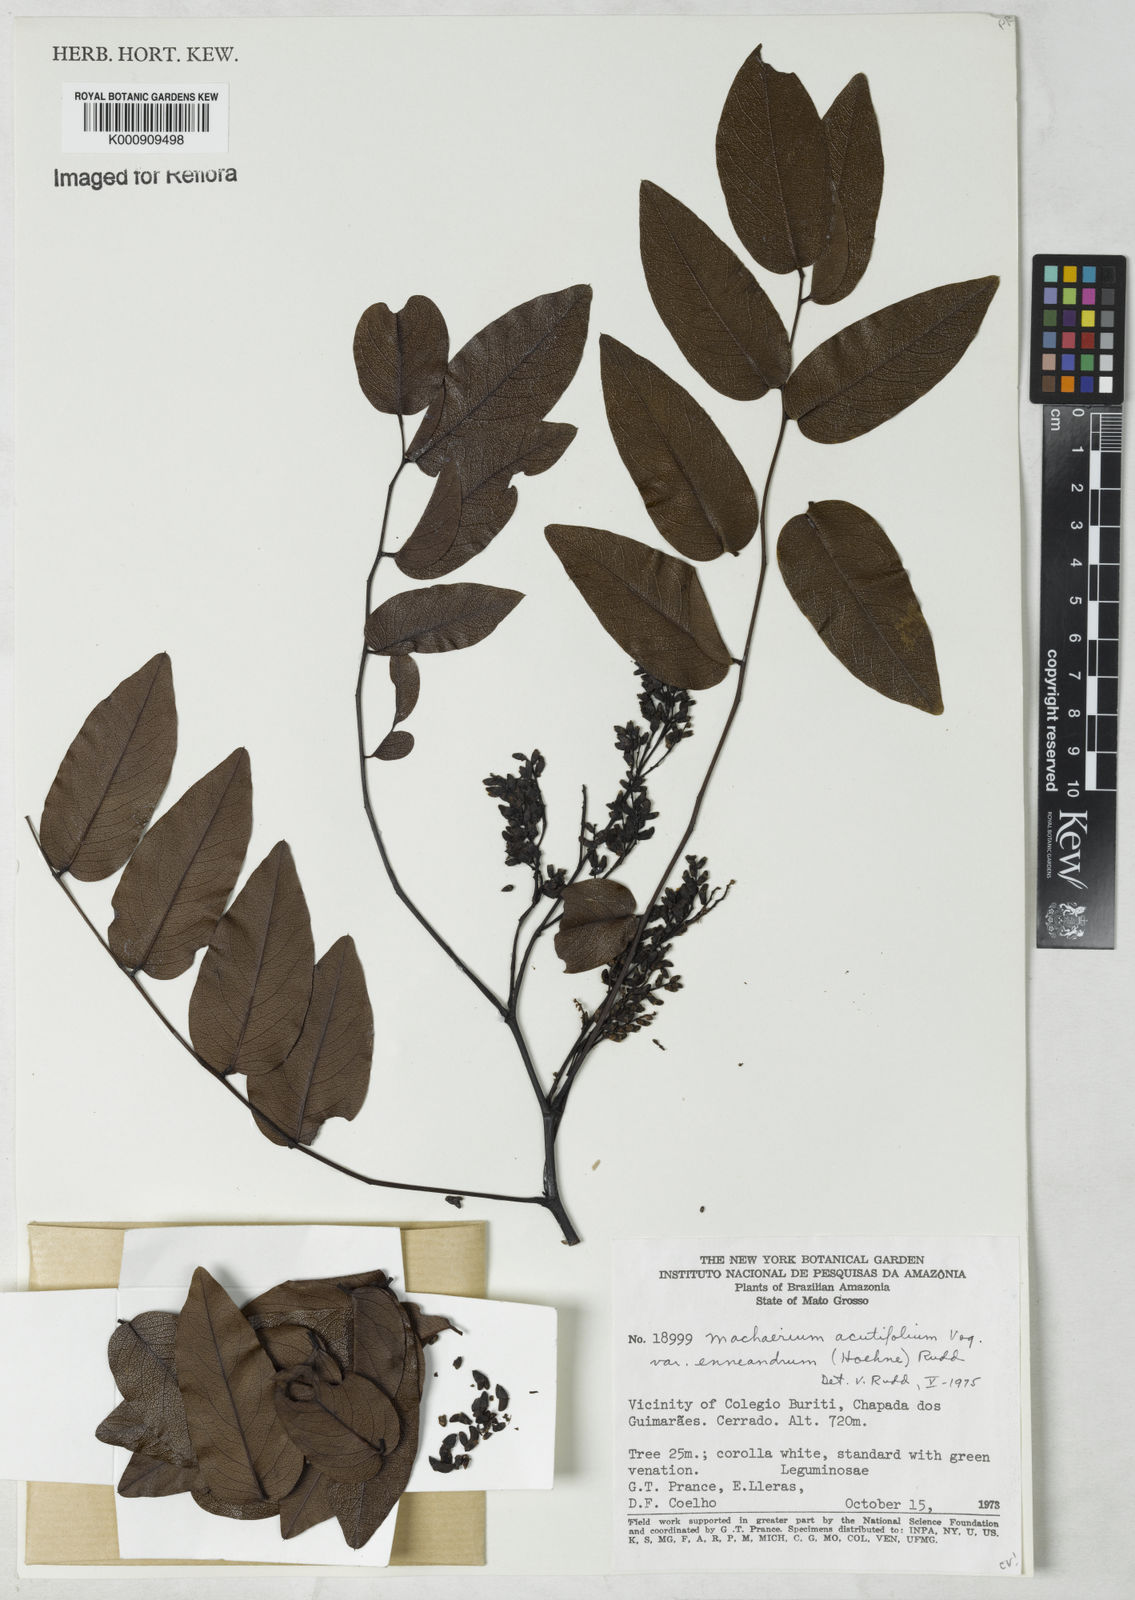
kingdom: Plantae
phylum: Tracheophyta
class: Magnoliopsida
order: Fabales
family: Fabaceae
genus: Machaerium
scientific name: Machaerium acutifolium
